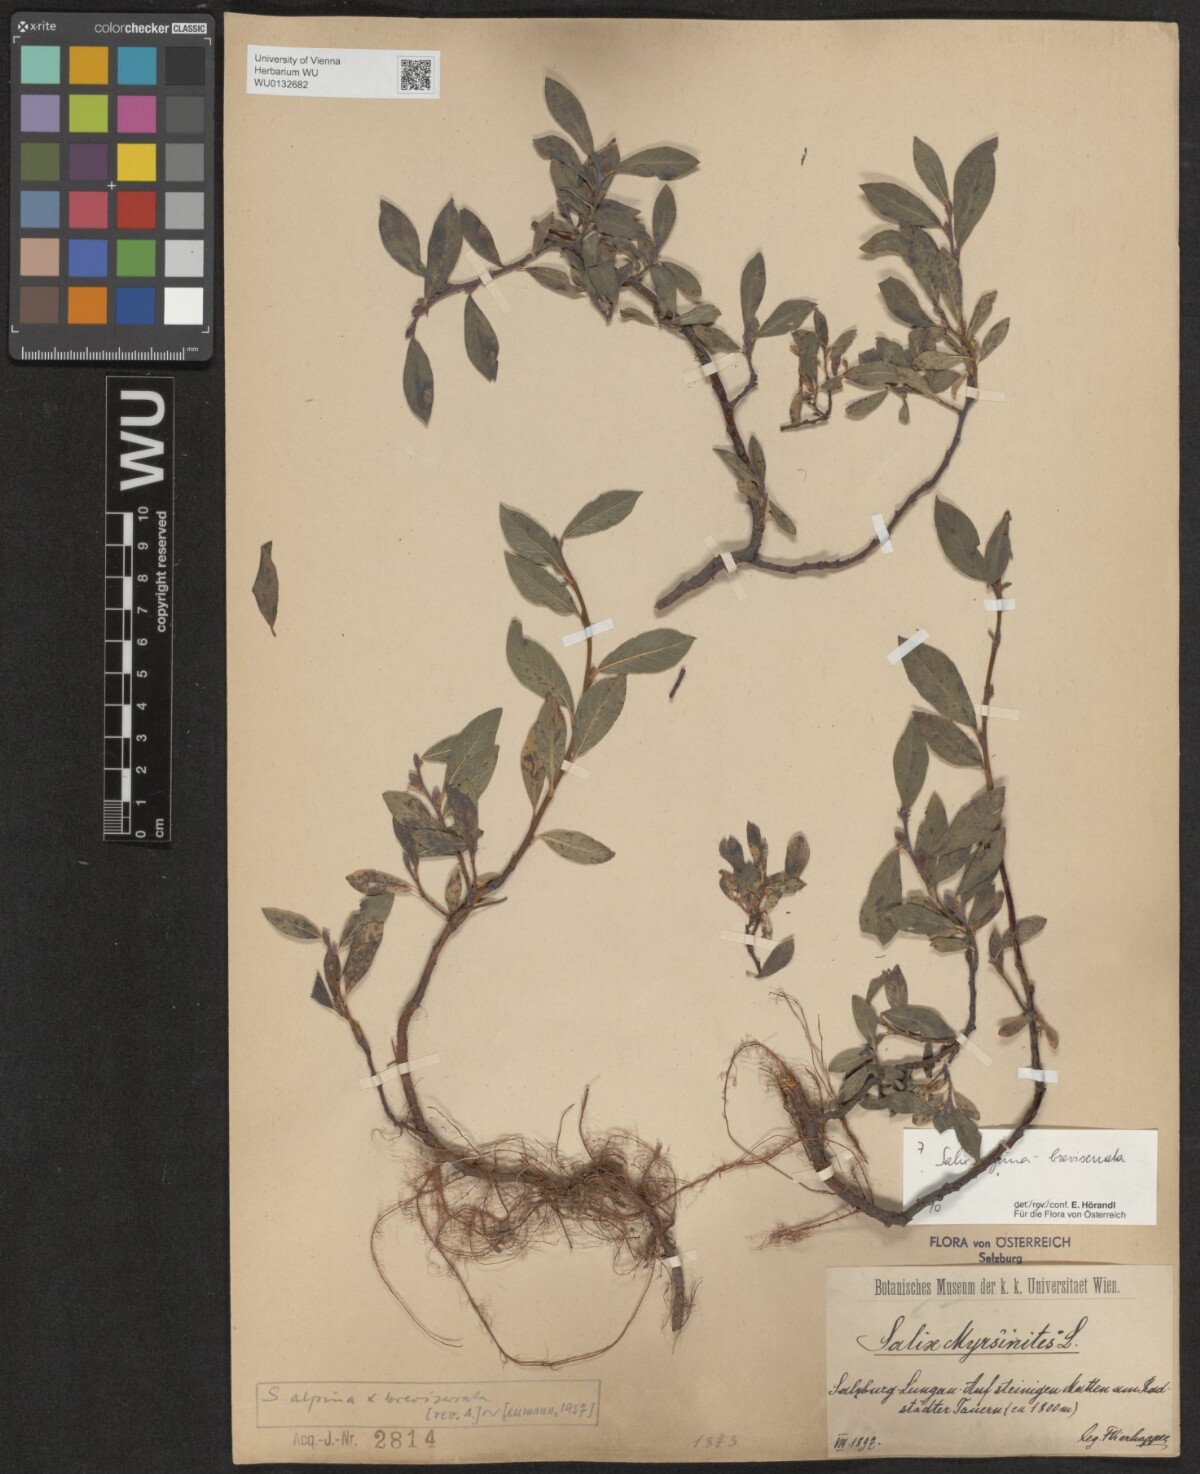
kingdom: Plantae
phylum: Tracheophyta
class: Magnoliopsida
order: Malpighiales
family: Salicaceae
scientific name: Salicaceae
